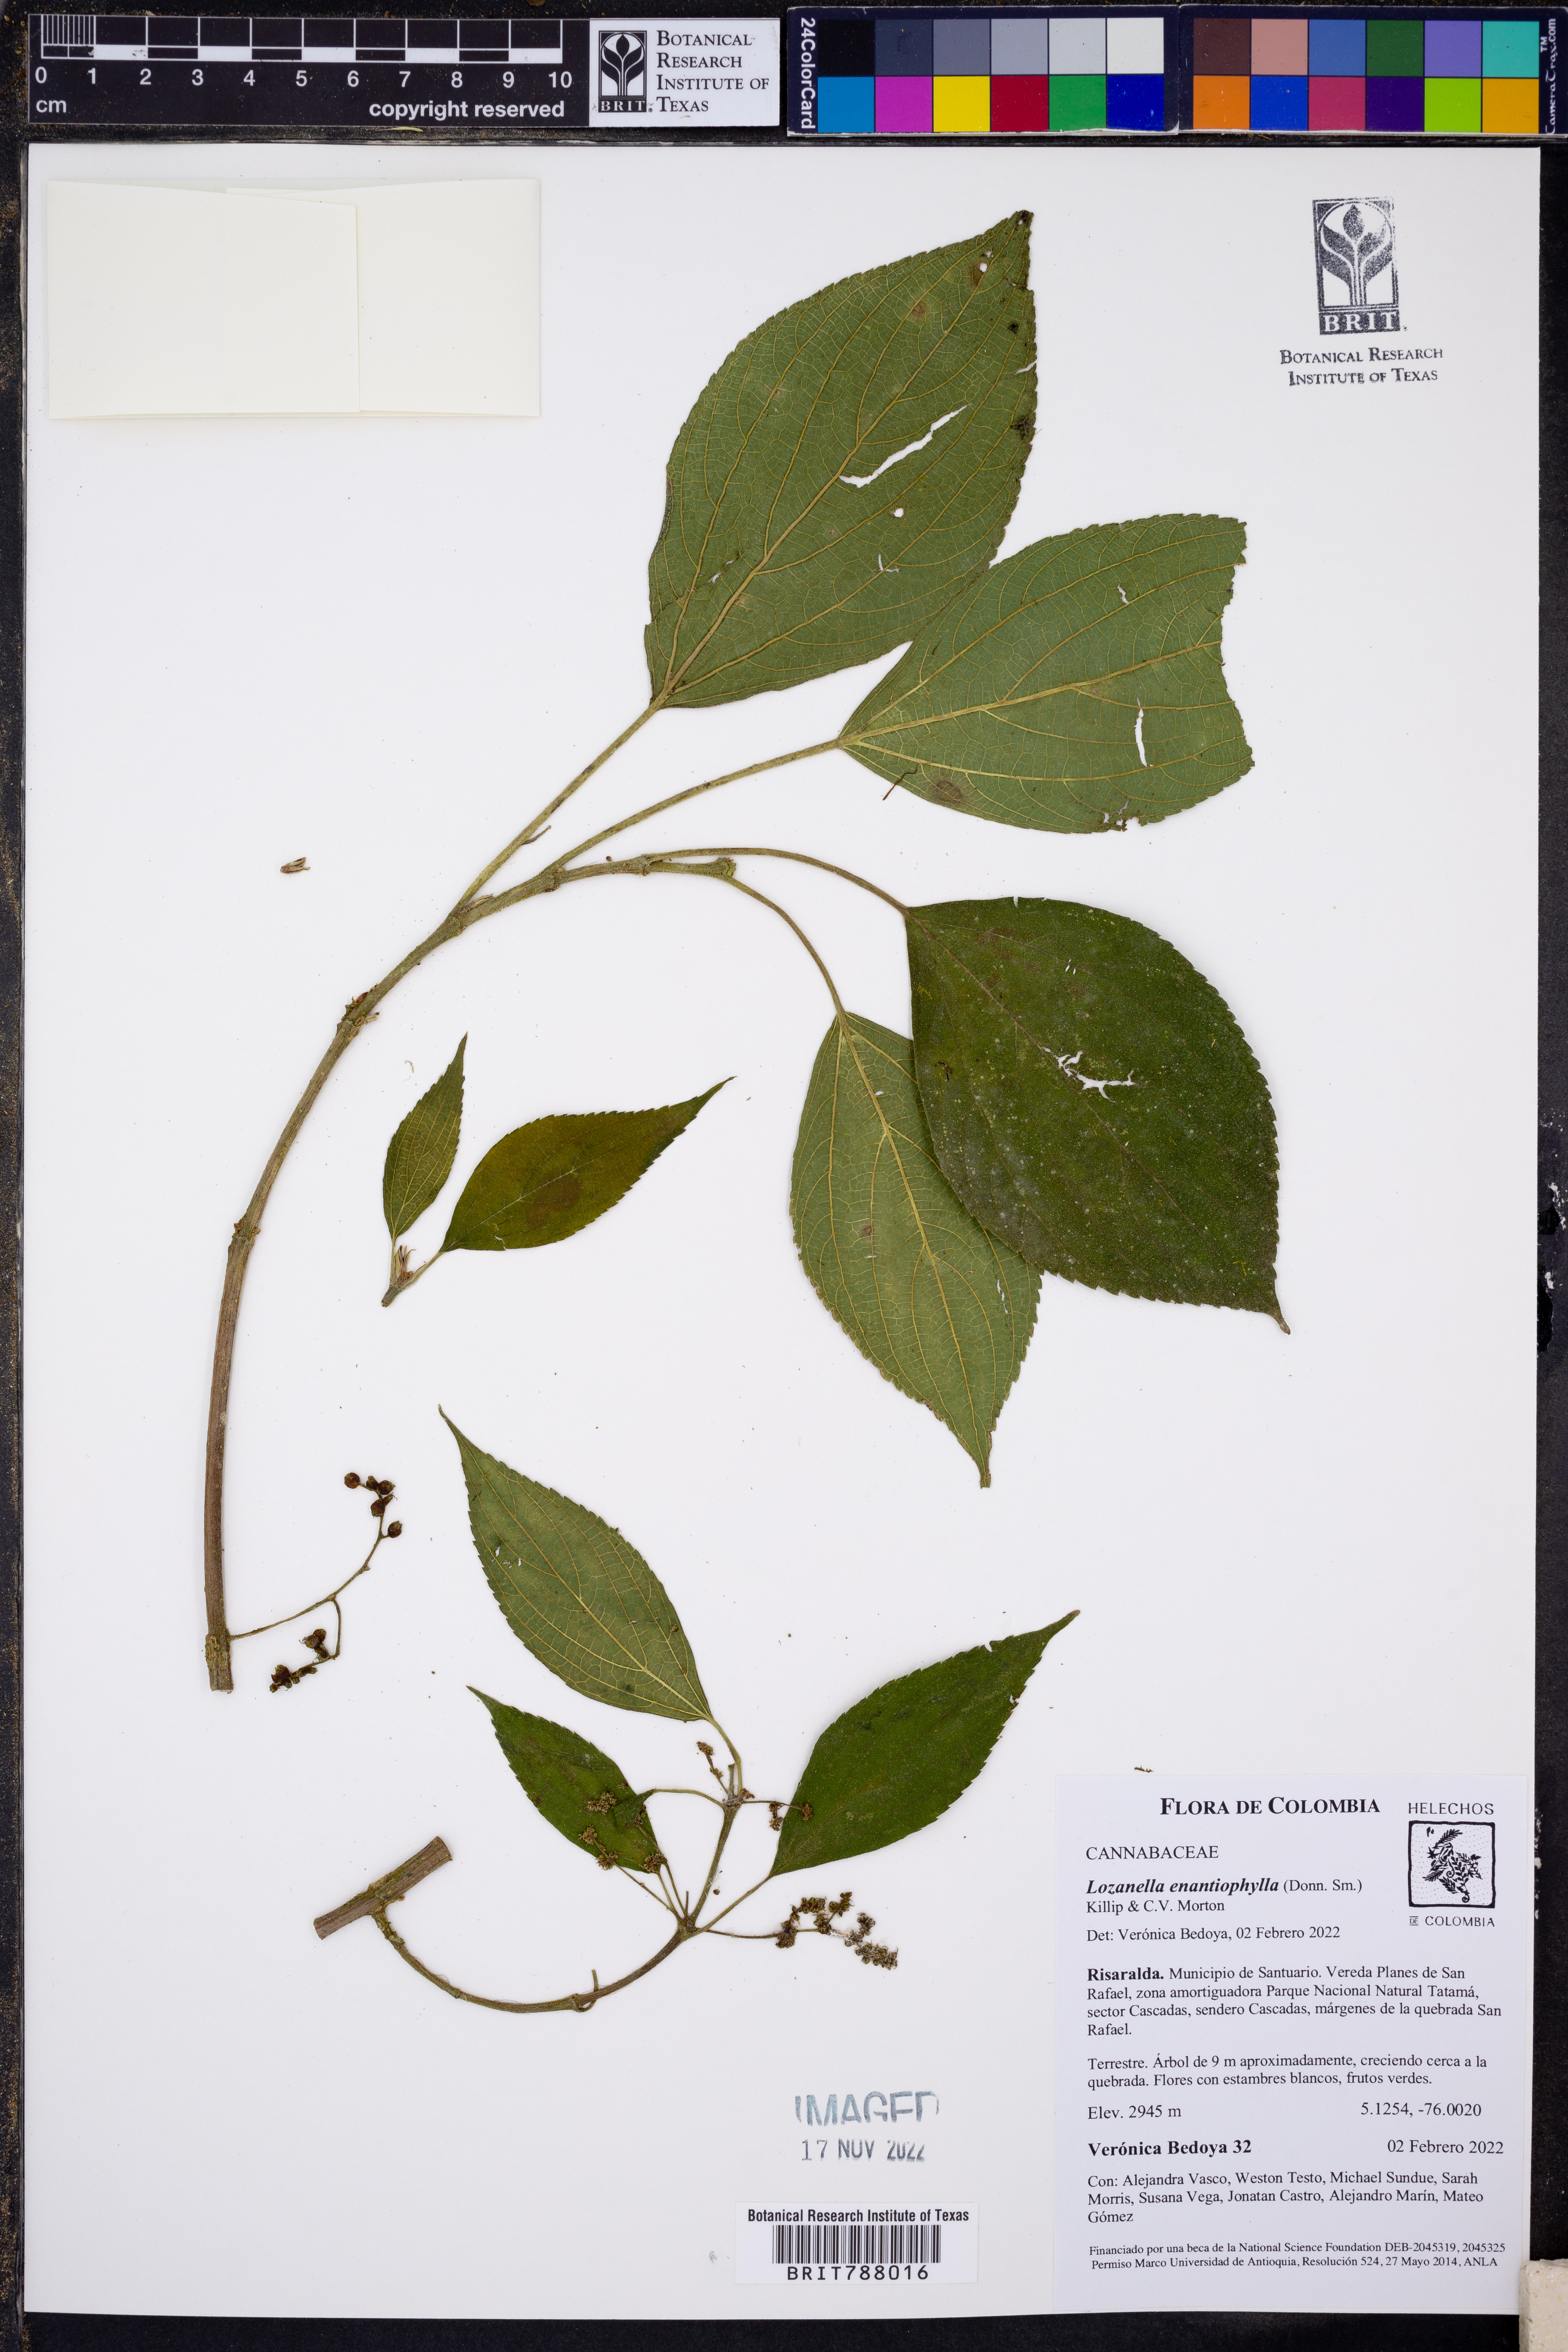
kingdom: Plantae
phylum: Tracheophyta
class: Magnoliopsida
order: Rosales
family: Cannabaceae
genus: Lozanella
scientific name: Lozanella enantiophylla
